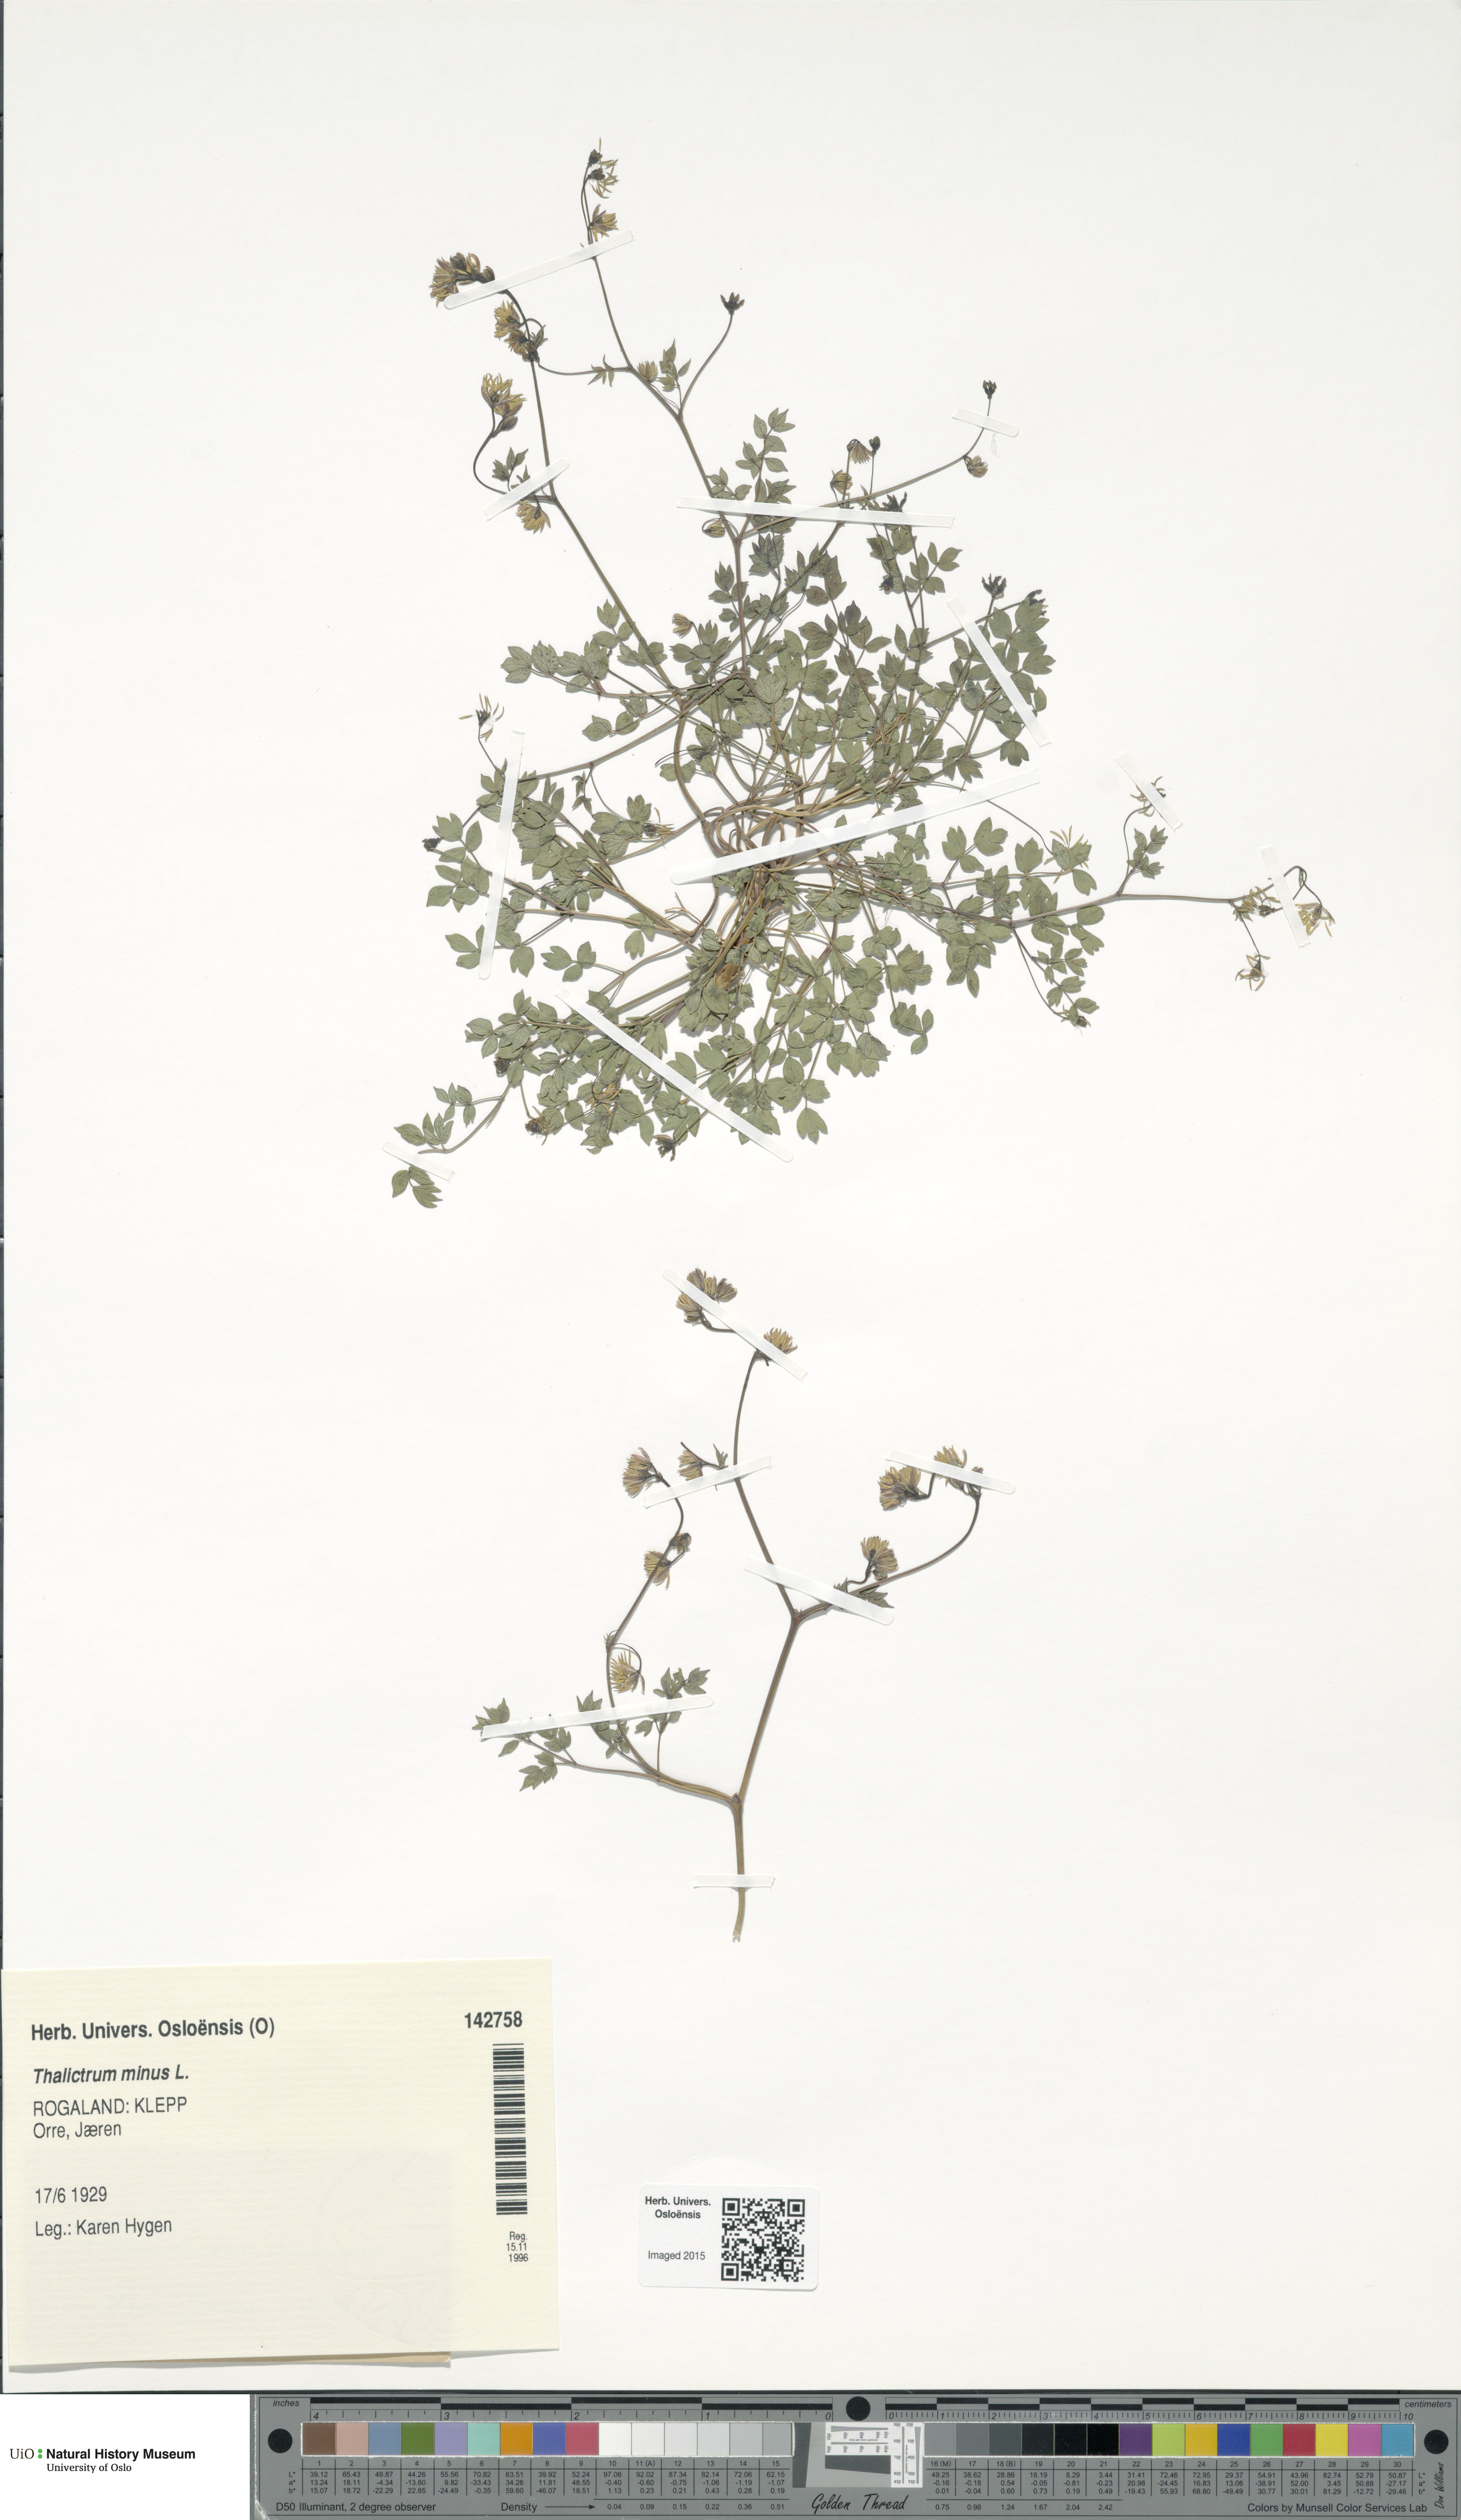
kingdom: Plantae
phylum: Tracheophyta
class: Magnoliopsida
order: Ranunculales
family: Ranunculaceae
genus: Thalictrum
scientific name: Thalictrum minus
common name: Lesser meadow-rue
